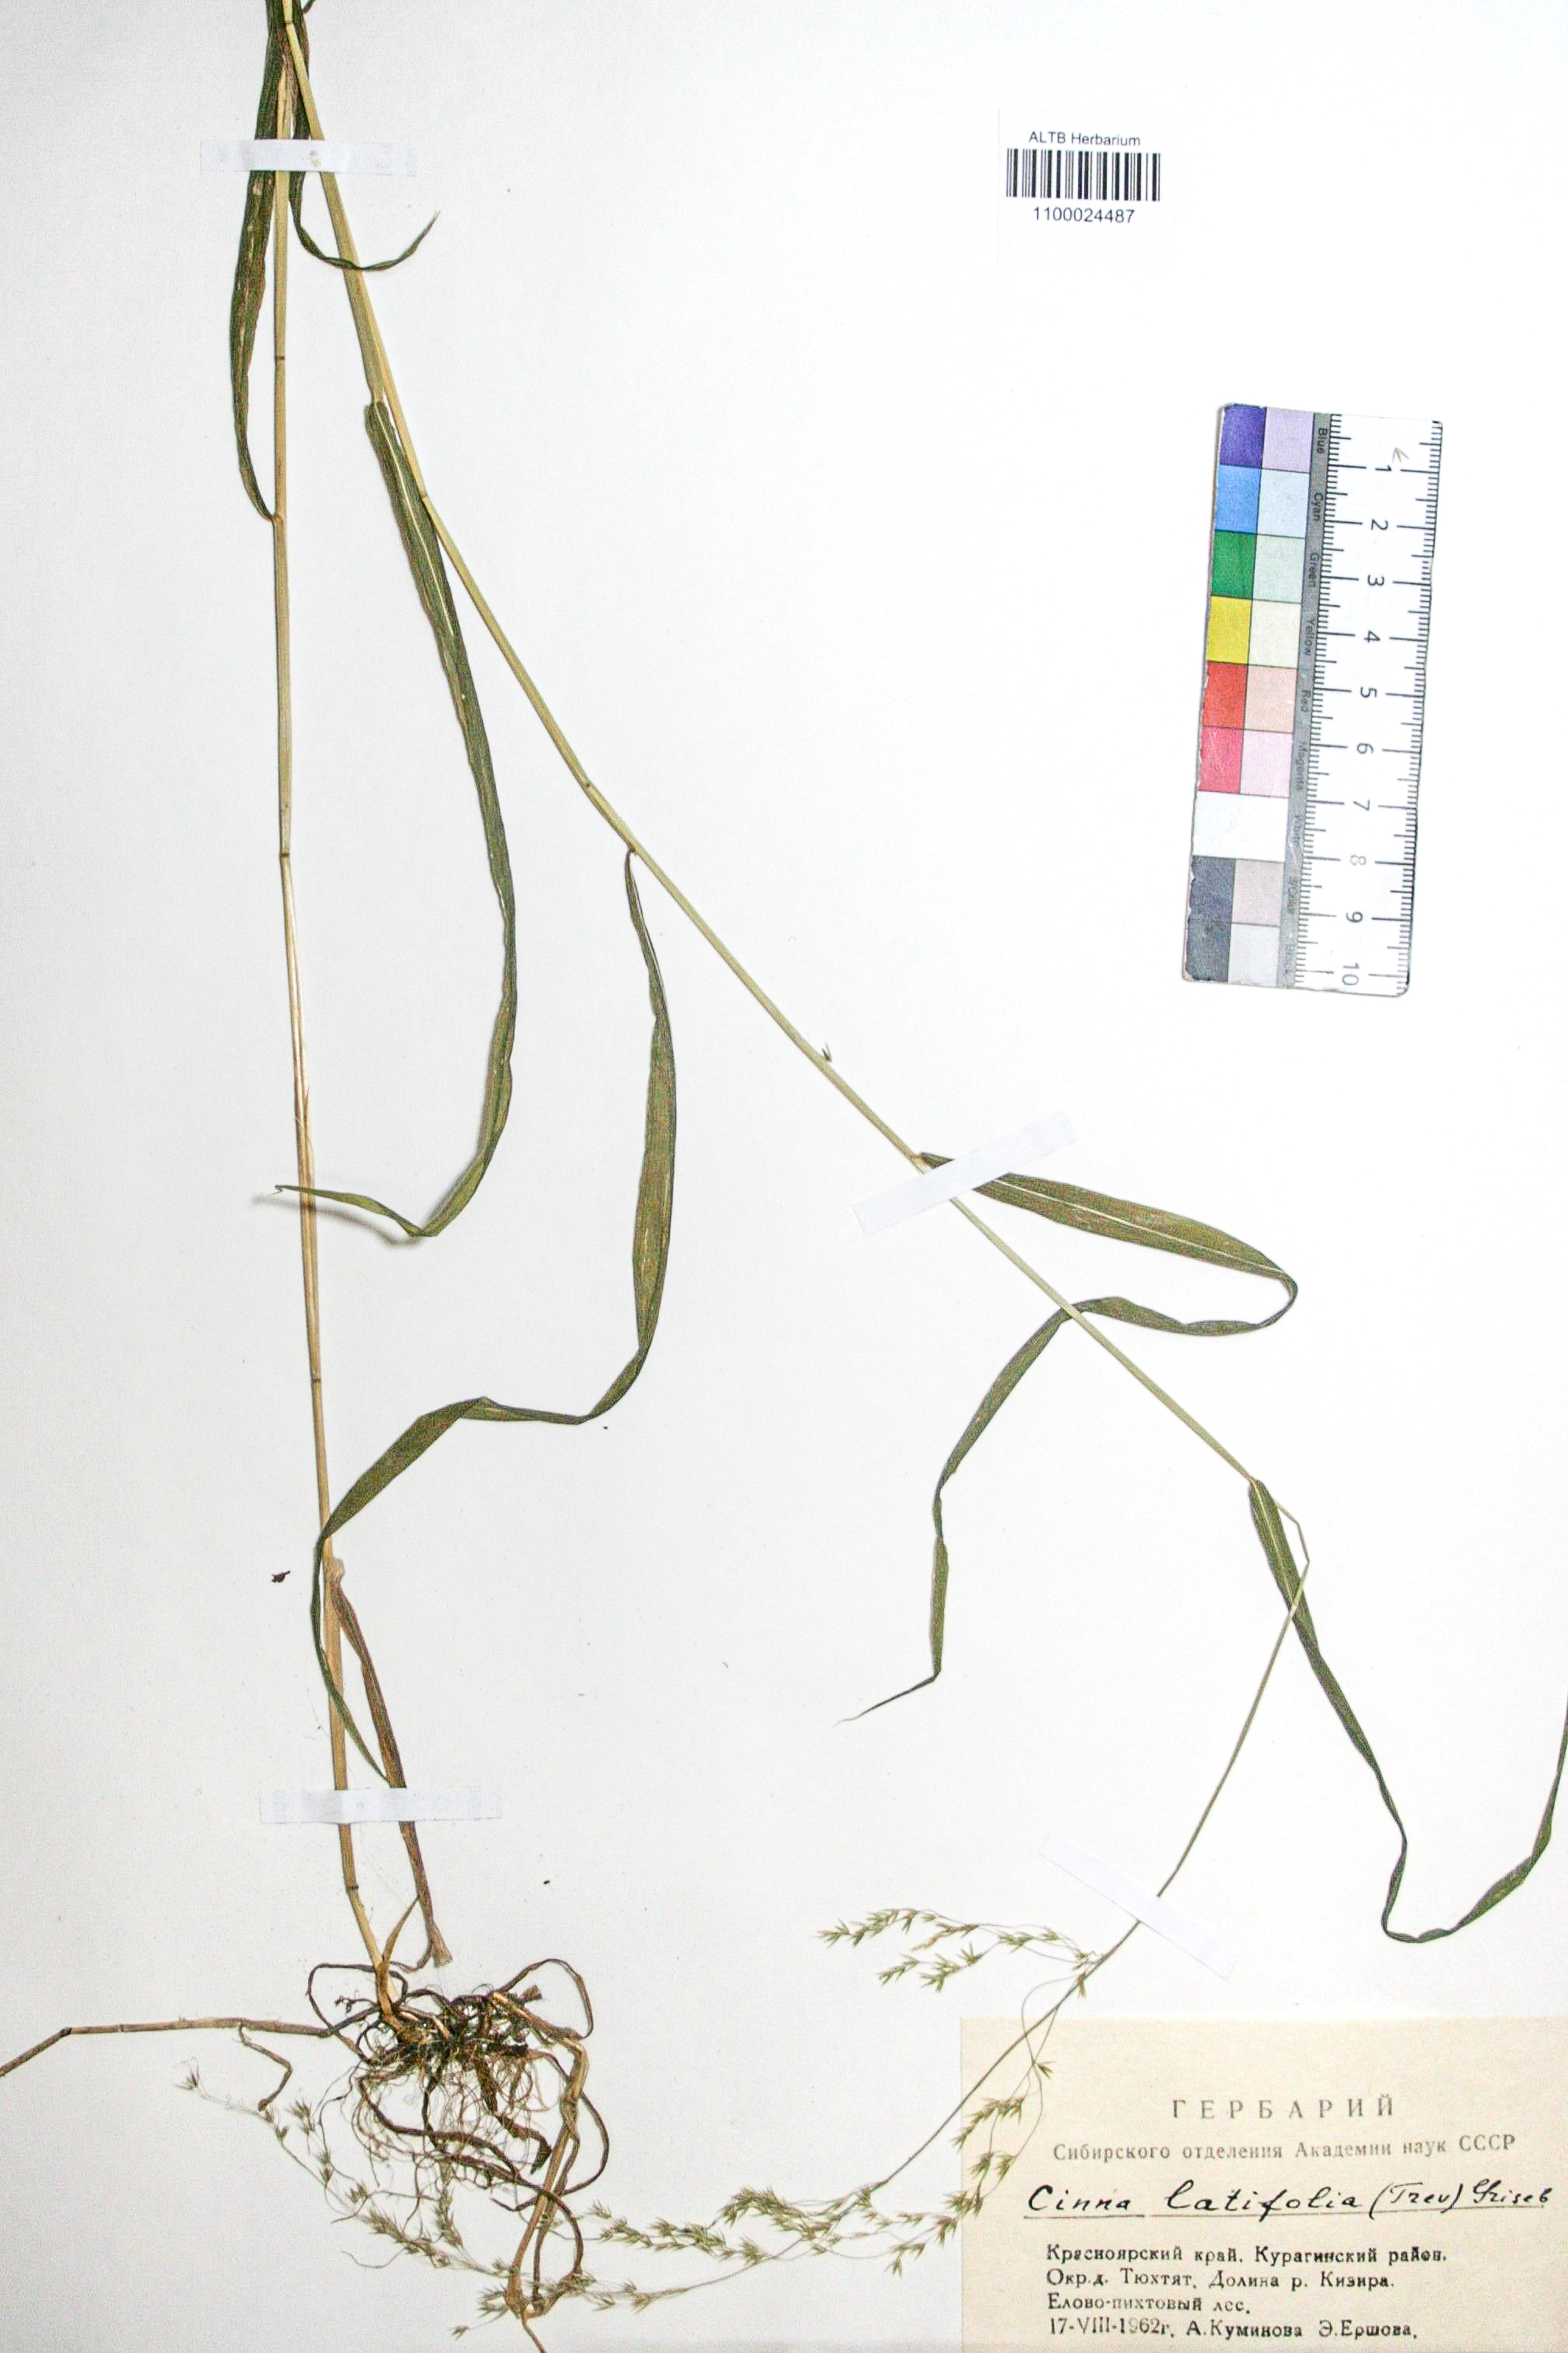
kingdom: Plantae
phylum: Tracheophyta
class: Liliopsida
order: Poales
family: Poaceae
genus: Cinna
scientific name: Cinna latifolia
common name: Drooping woodreed
